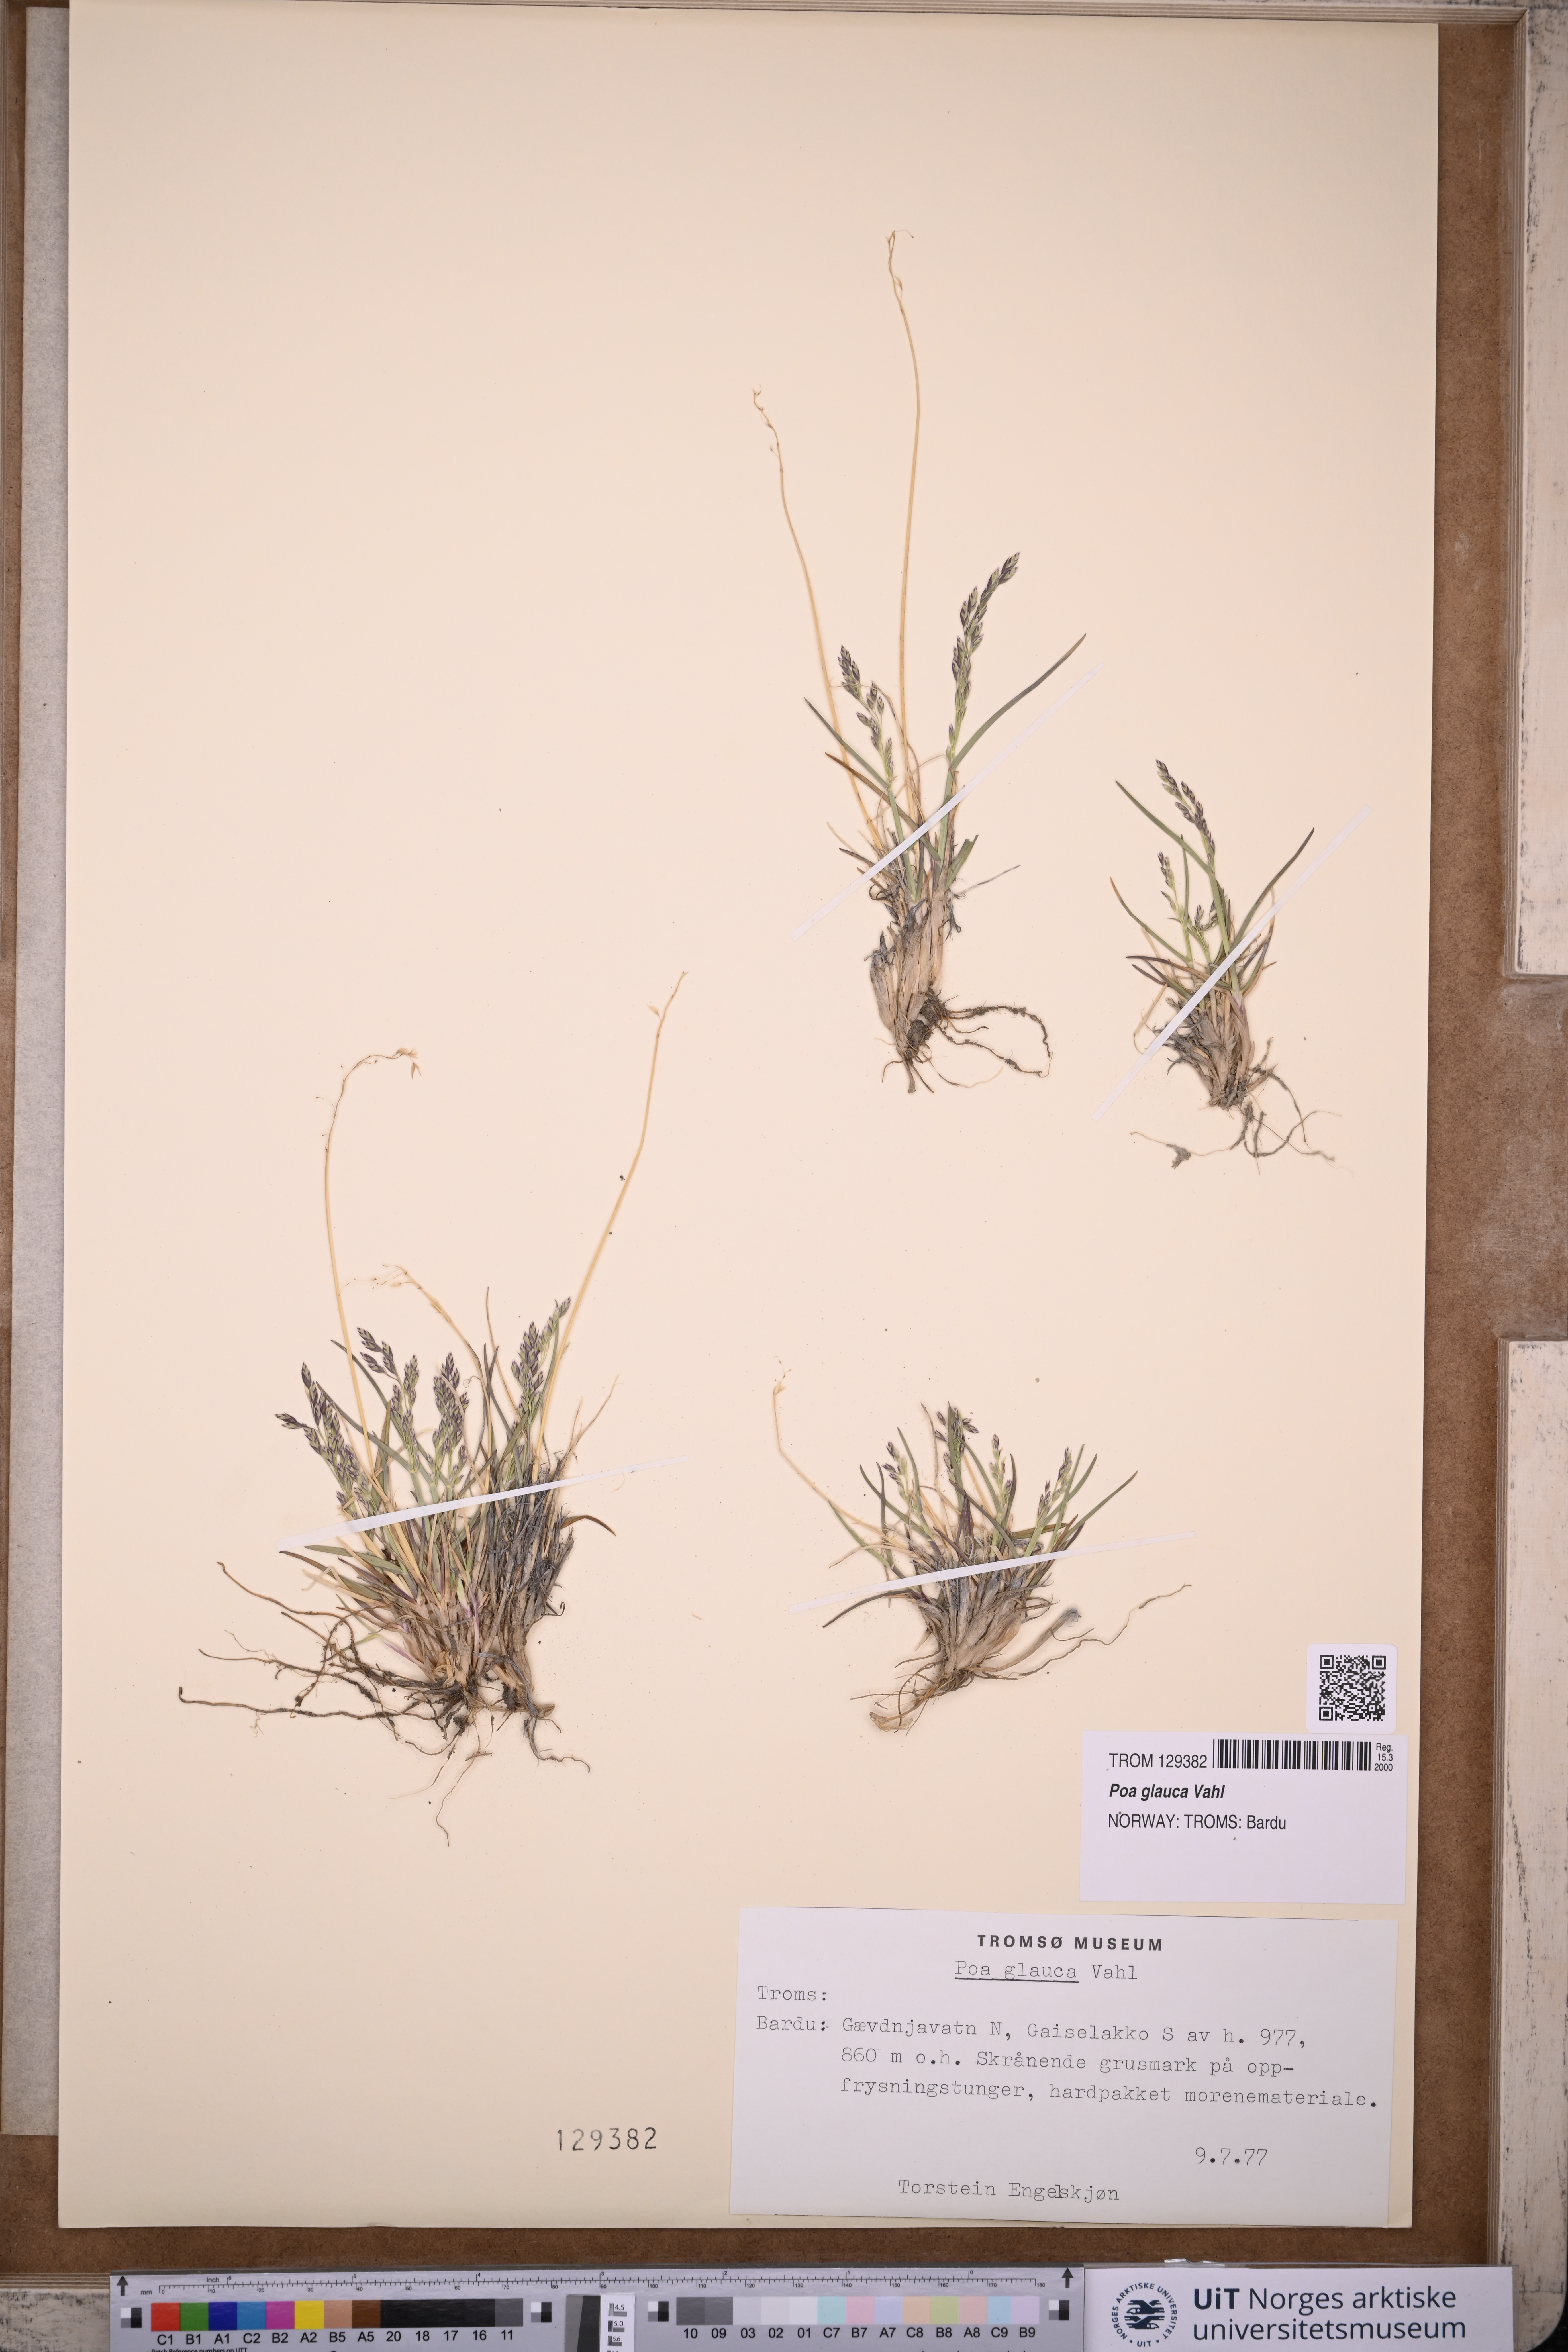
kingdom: Plantae
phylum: Tracheophyta
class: Liliopsida
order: Poales
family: Poaceae
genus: Poa
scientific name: Poa glauca
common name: Glaucous bluegrass
